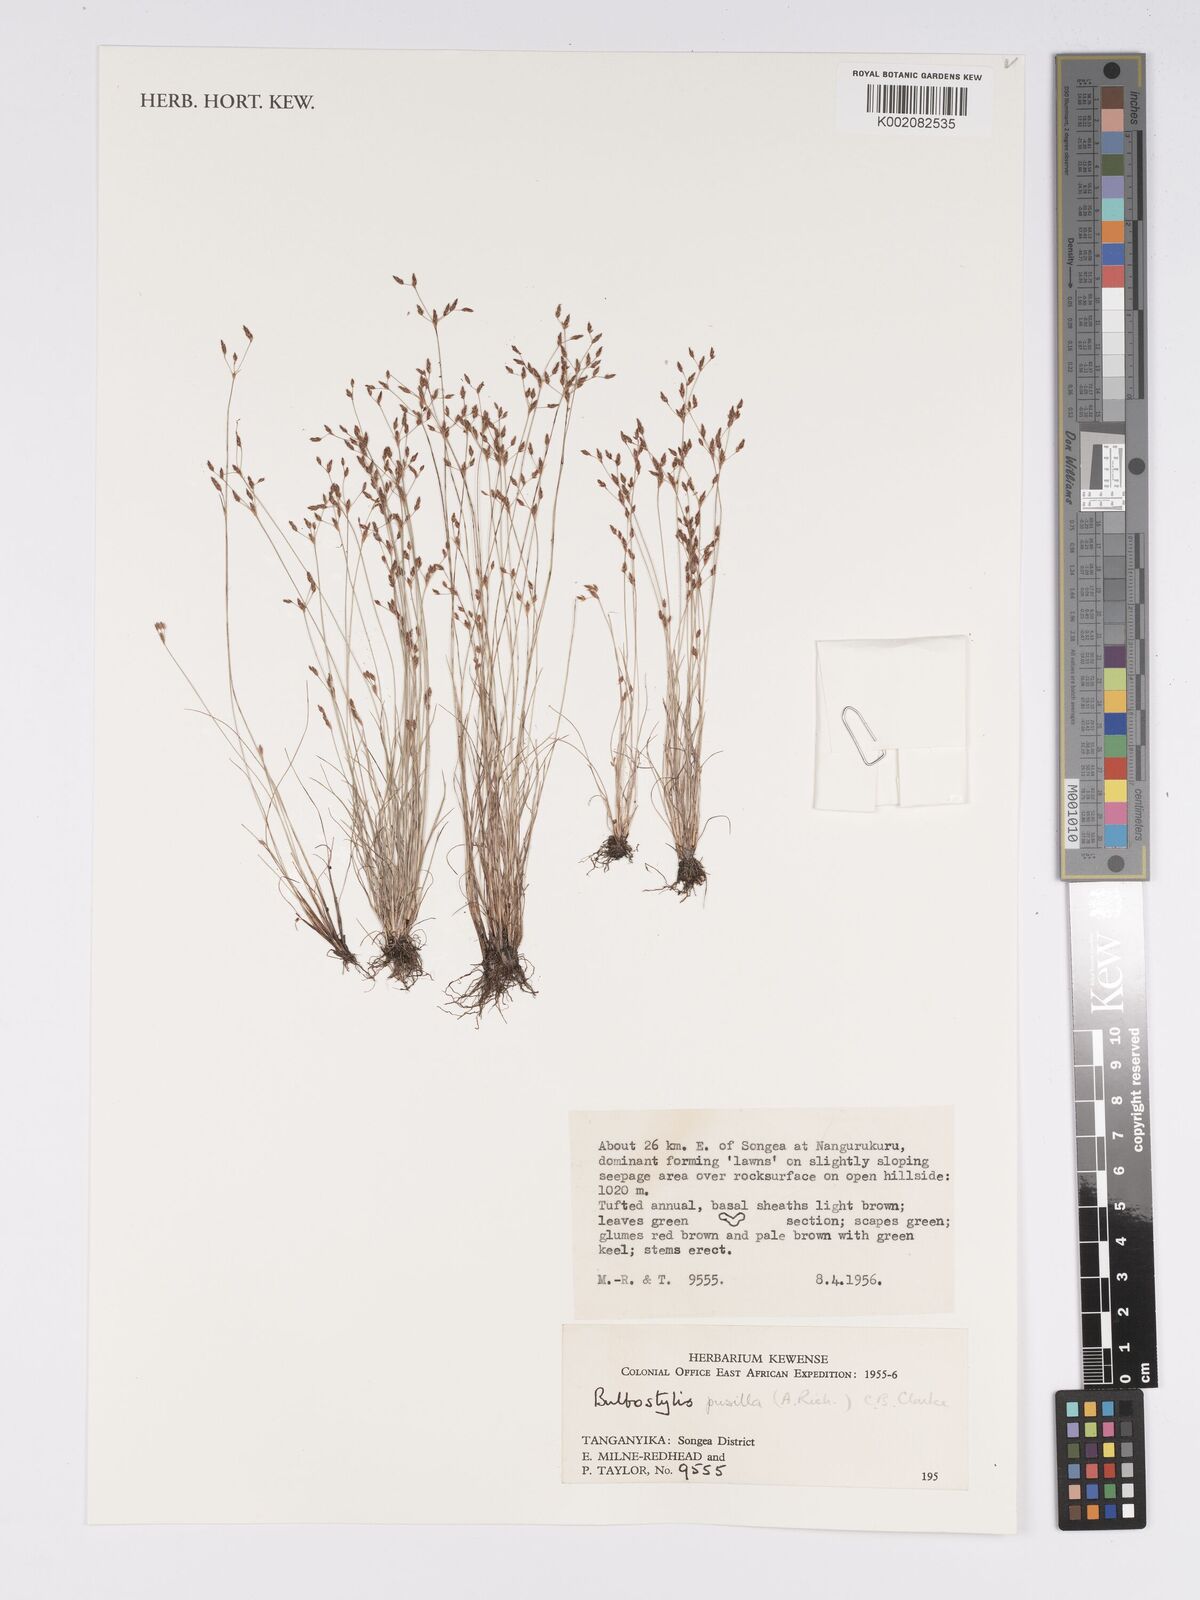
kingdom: Plantae
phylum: Tracheophyta
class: Liliopsida
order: Poales
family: Cyperaceae
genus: Bulbostylis
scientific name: Bulbostylis pusilla
